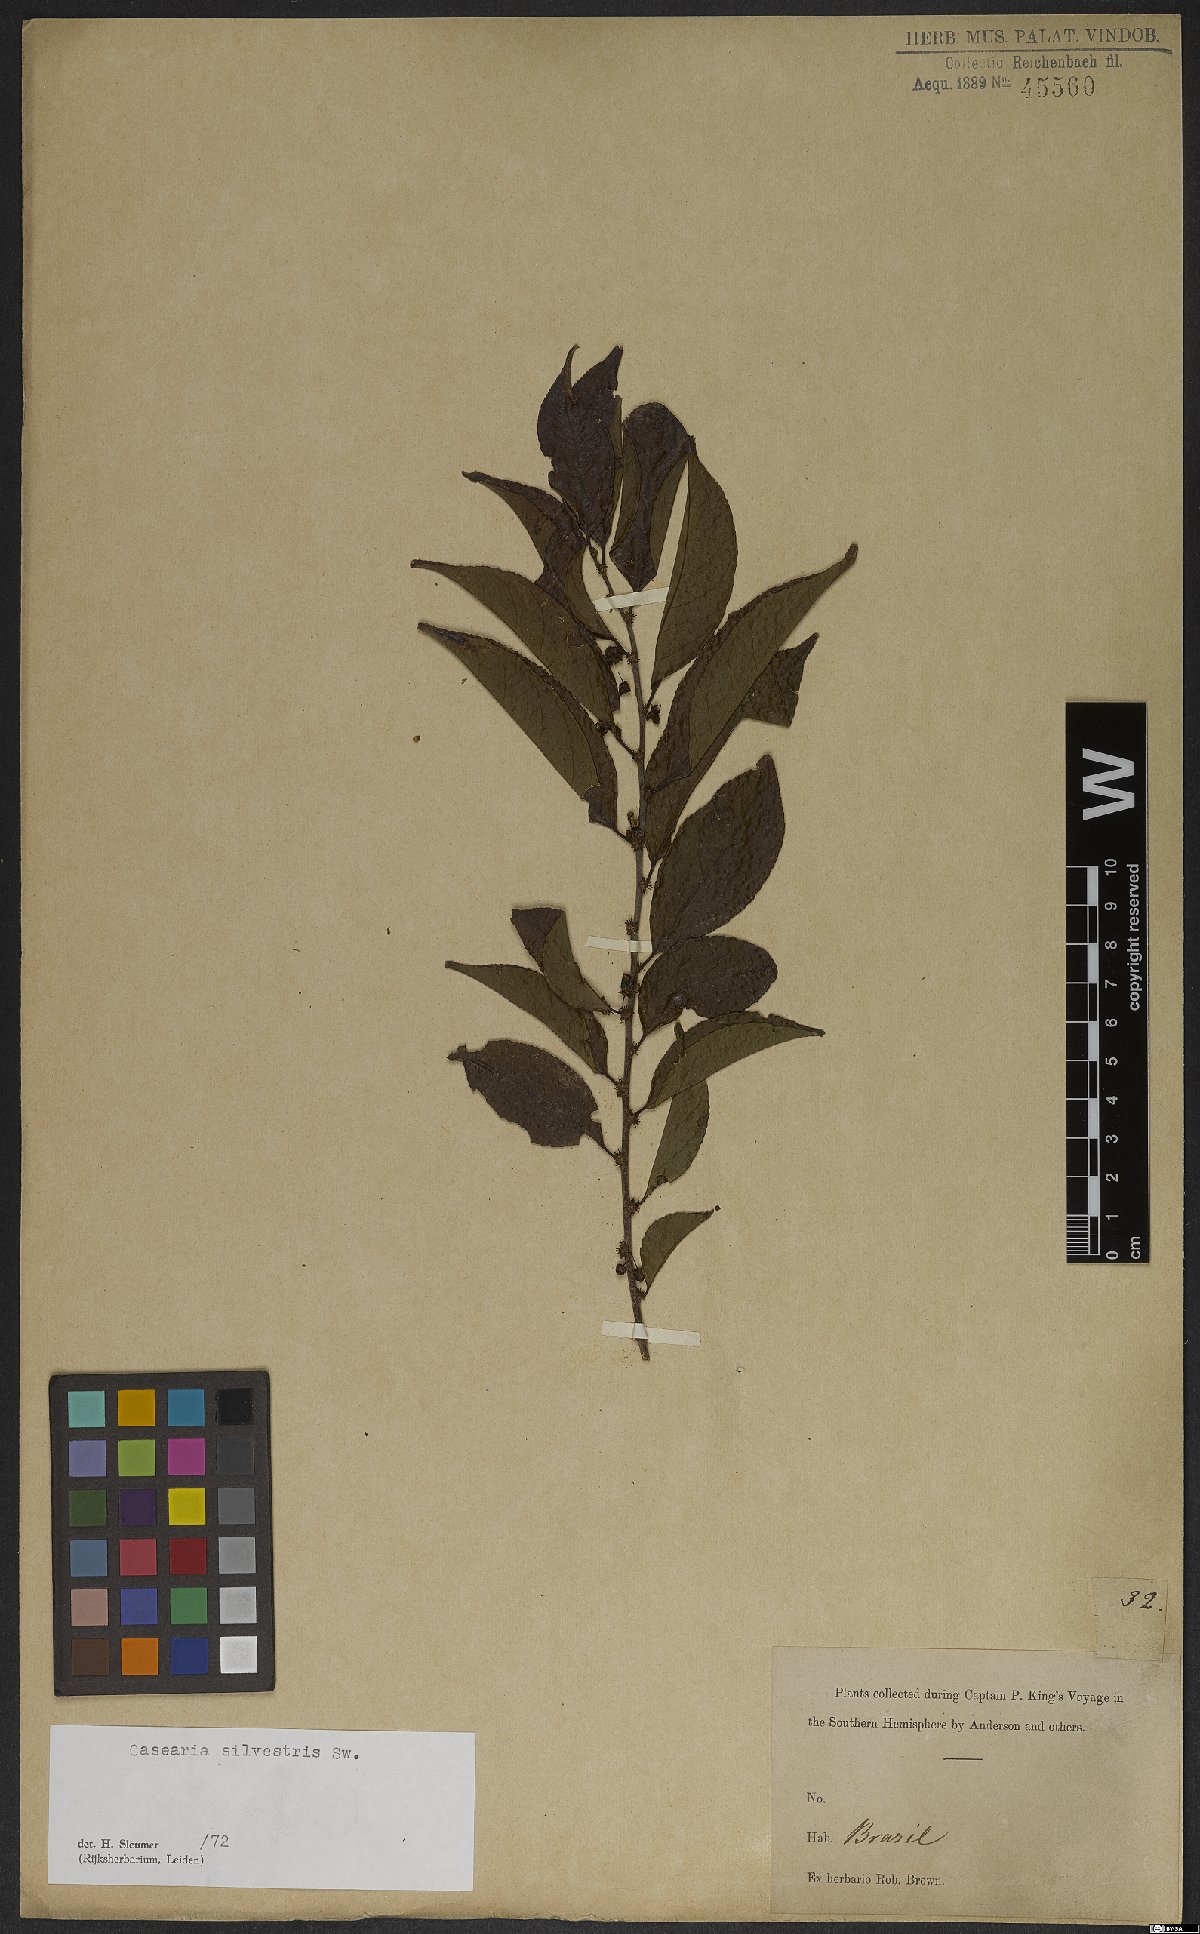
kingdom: Plantae
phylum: Tracheophyta
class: Magnoliopsida
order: Malpighiales
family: Salicaceae
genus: Casearia
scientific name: Casearia sylvestris
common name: Wild sage
